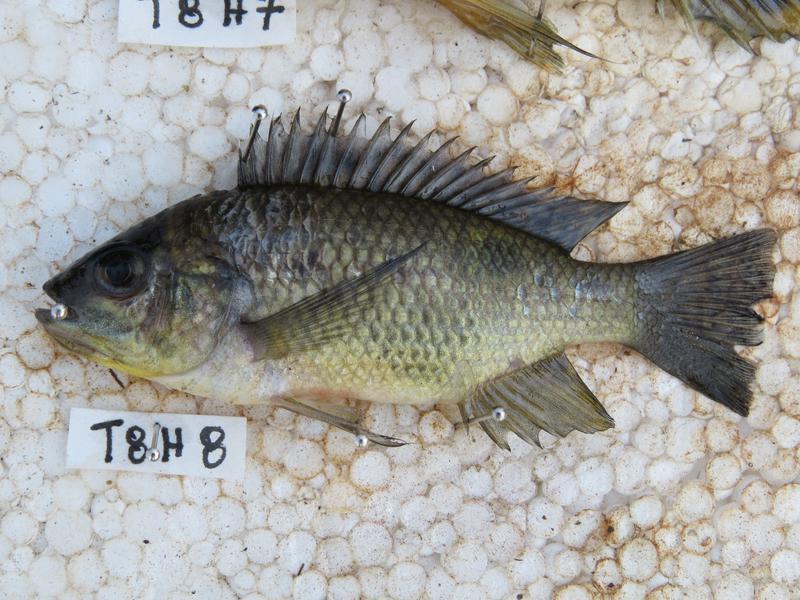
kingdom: Animalia
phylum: Chordata
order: Perciformes
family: Cichlidae
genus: Oreochromis
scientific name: Oreochromis shiranus
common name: Chilwa tilapia
